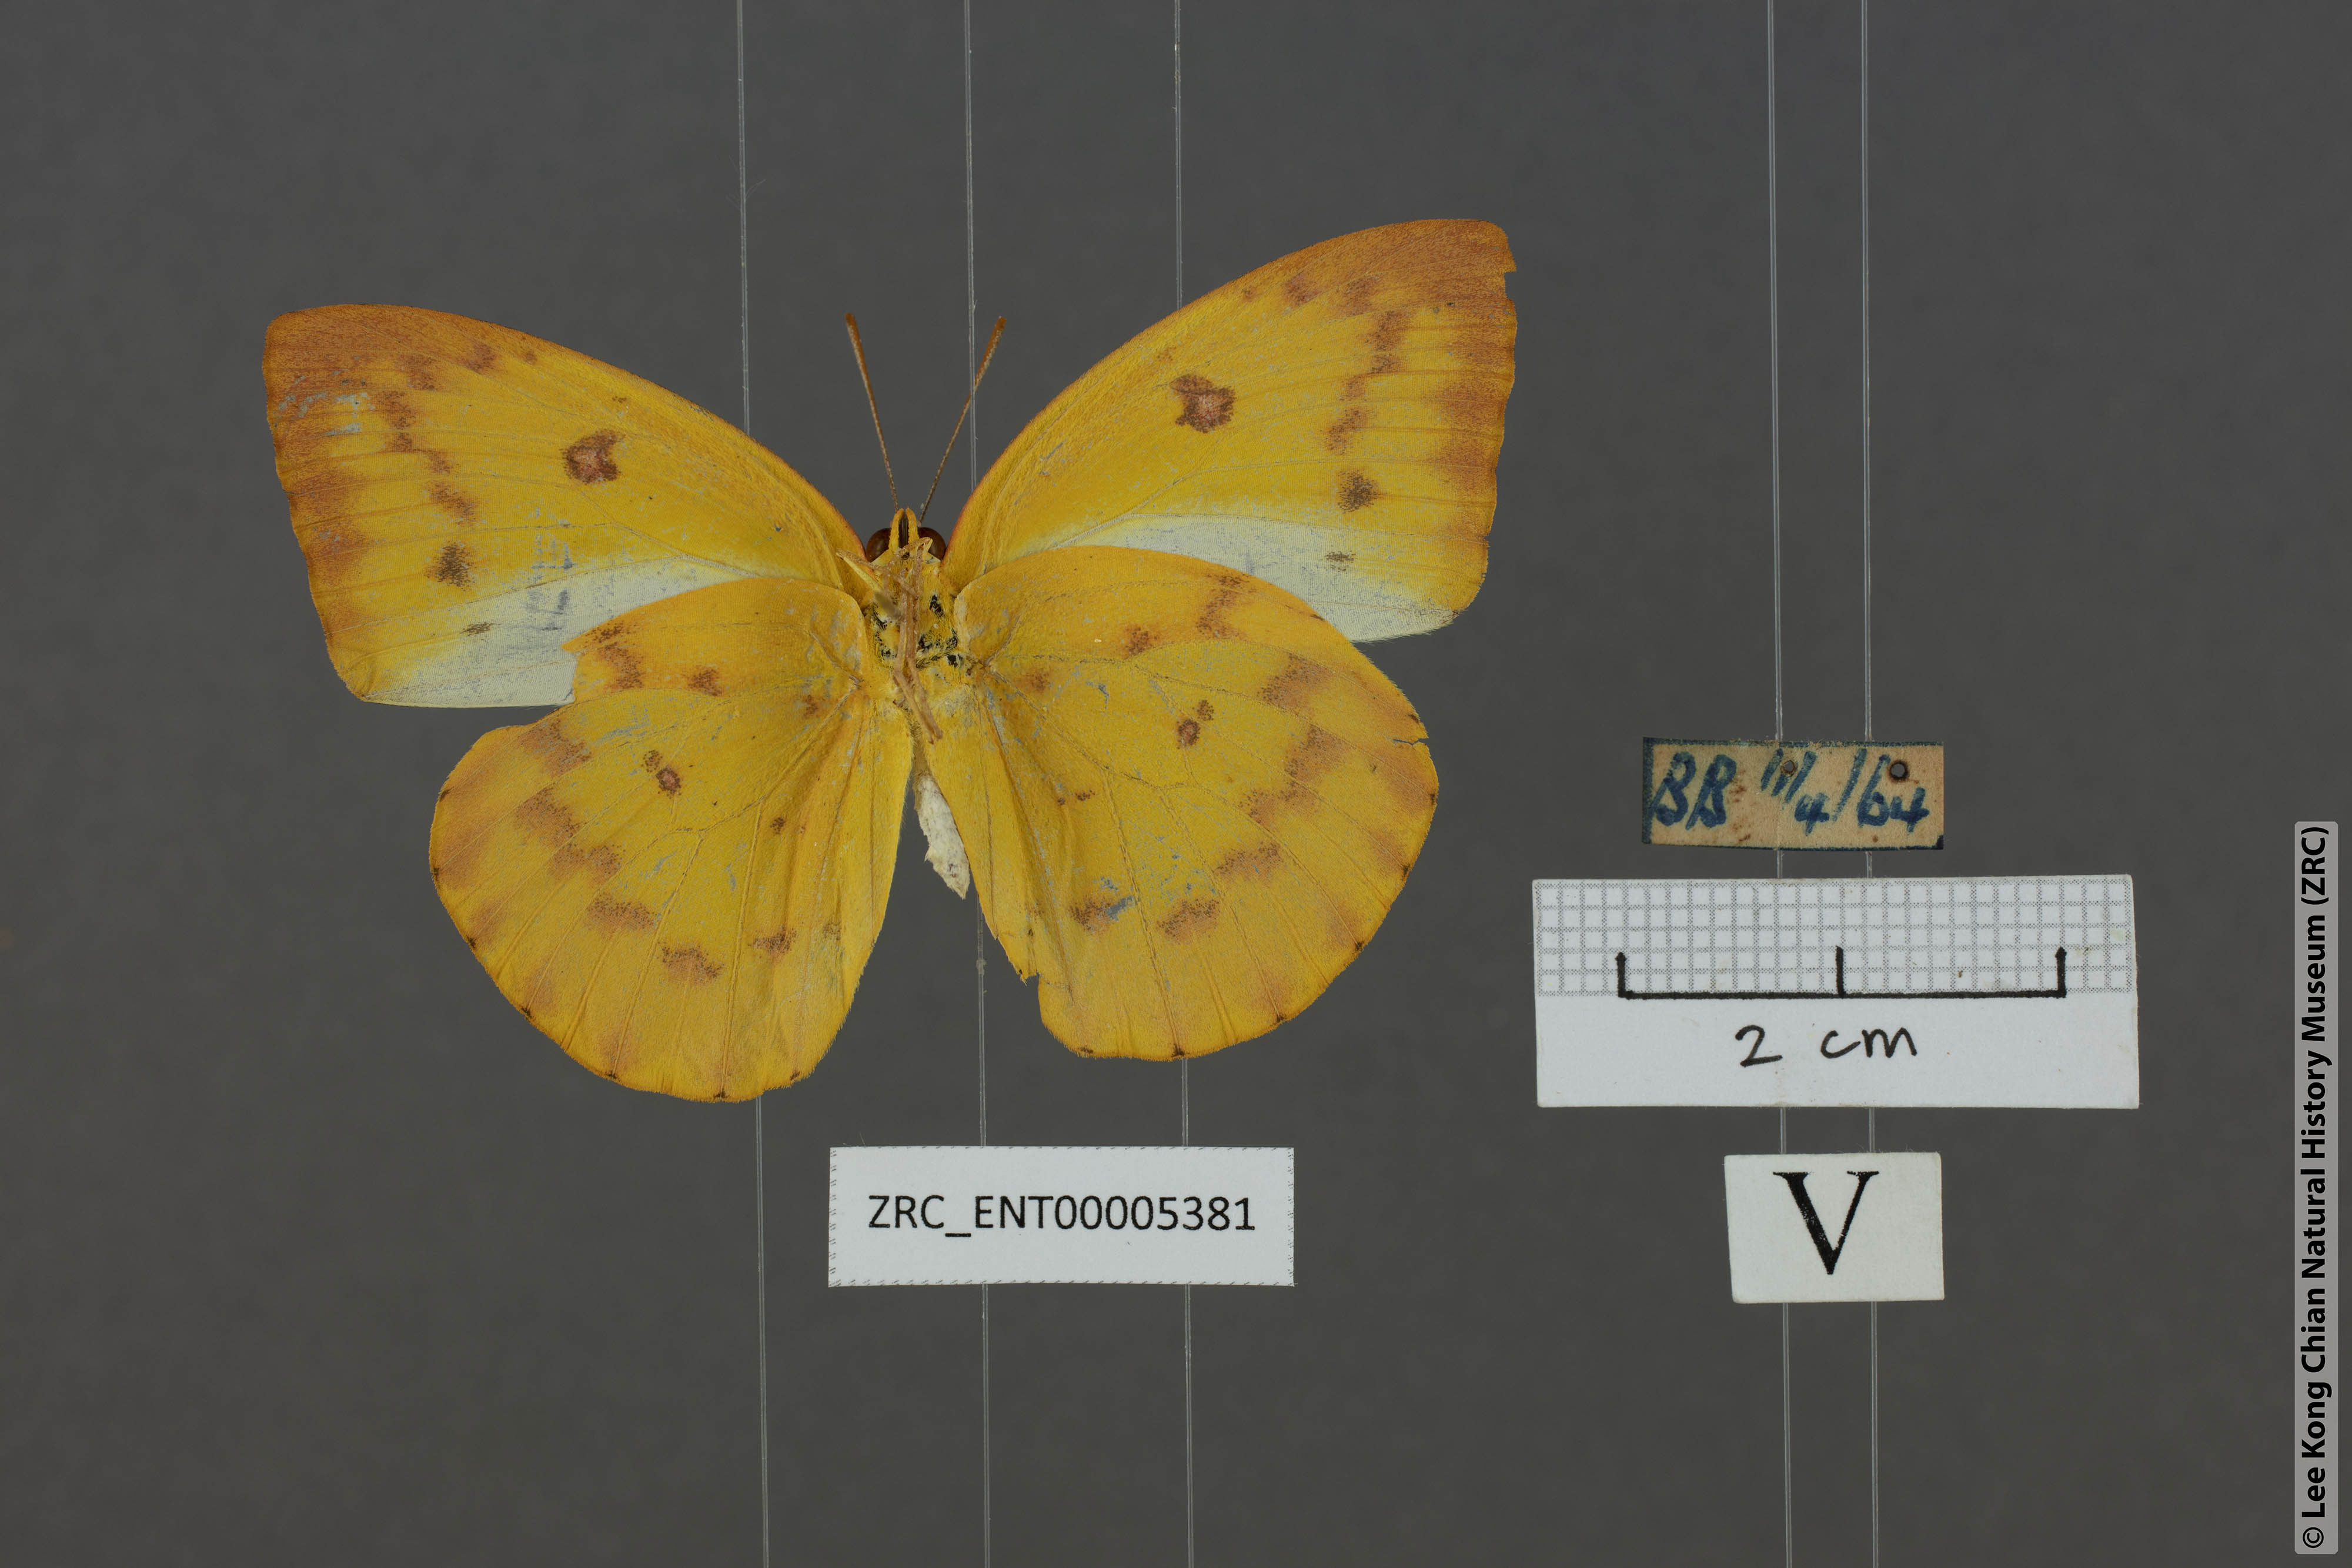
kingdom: Animalia
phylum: Arthropoda
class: Insecta
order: Lepidoptera
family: Pieridae
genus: Catopsilia
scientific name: Catopsilia scylla
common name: Orange emigrant
